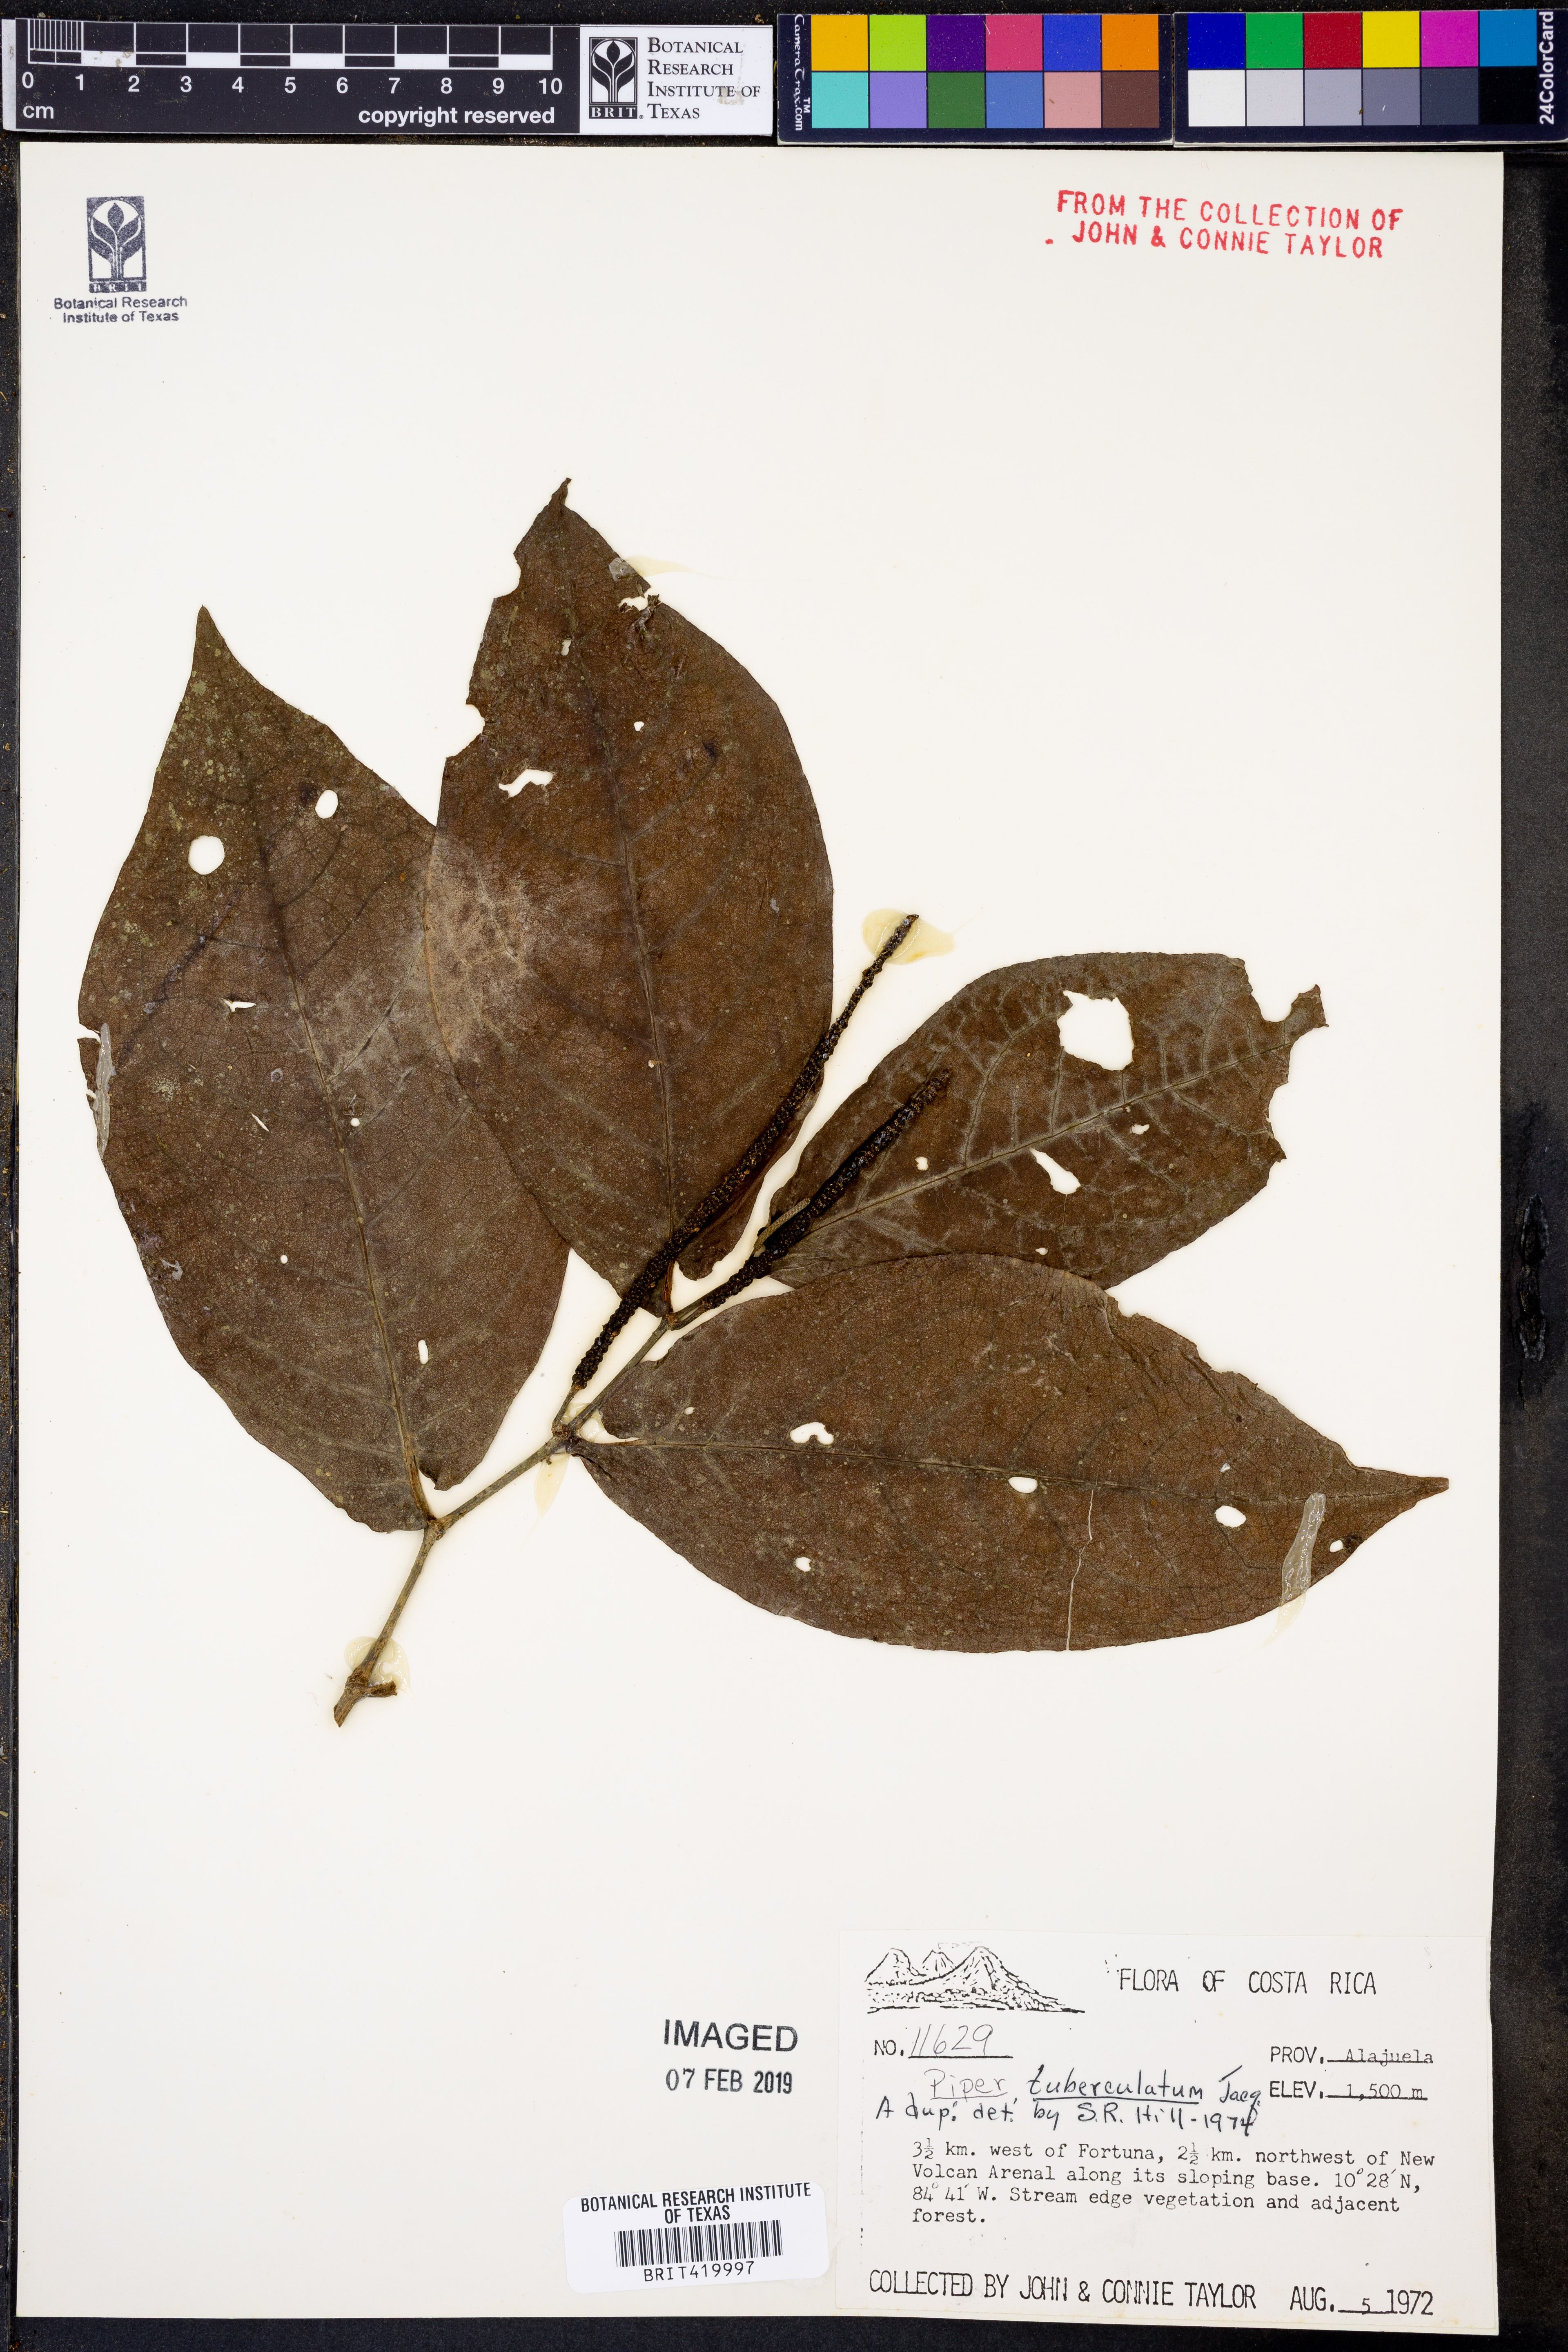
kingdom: Plantae
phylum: Tracheophyta
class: Magnoliopsida
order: Piperales
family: Piperaceae
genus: Piper
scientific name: Piper tuberculatum
